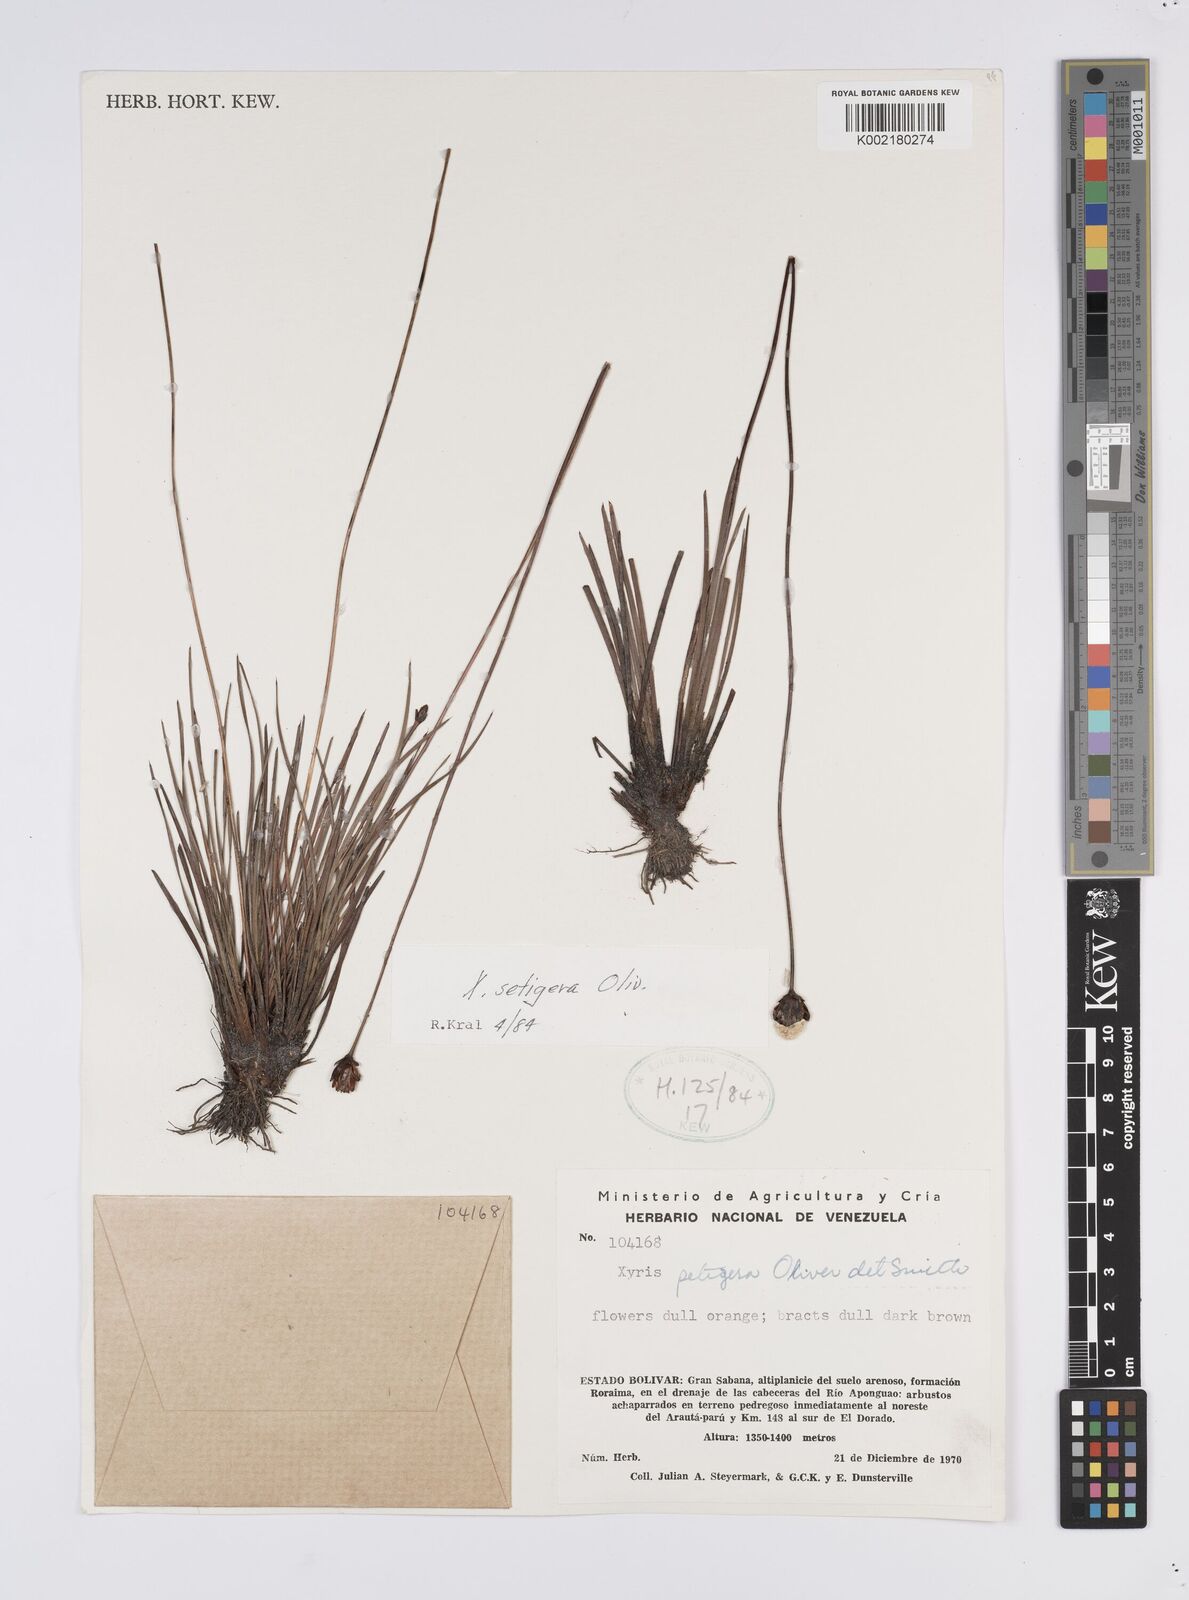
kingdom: Plantae
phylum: Tracheophyta
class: Liliopsida
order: Poales
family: Xyridaceae
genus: Xyris
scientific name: Xyris setigera
